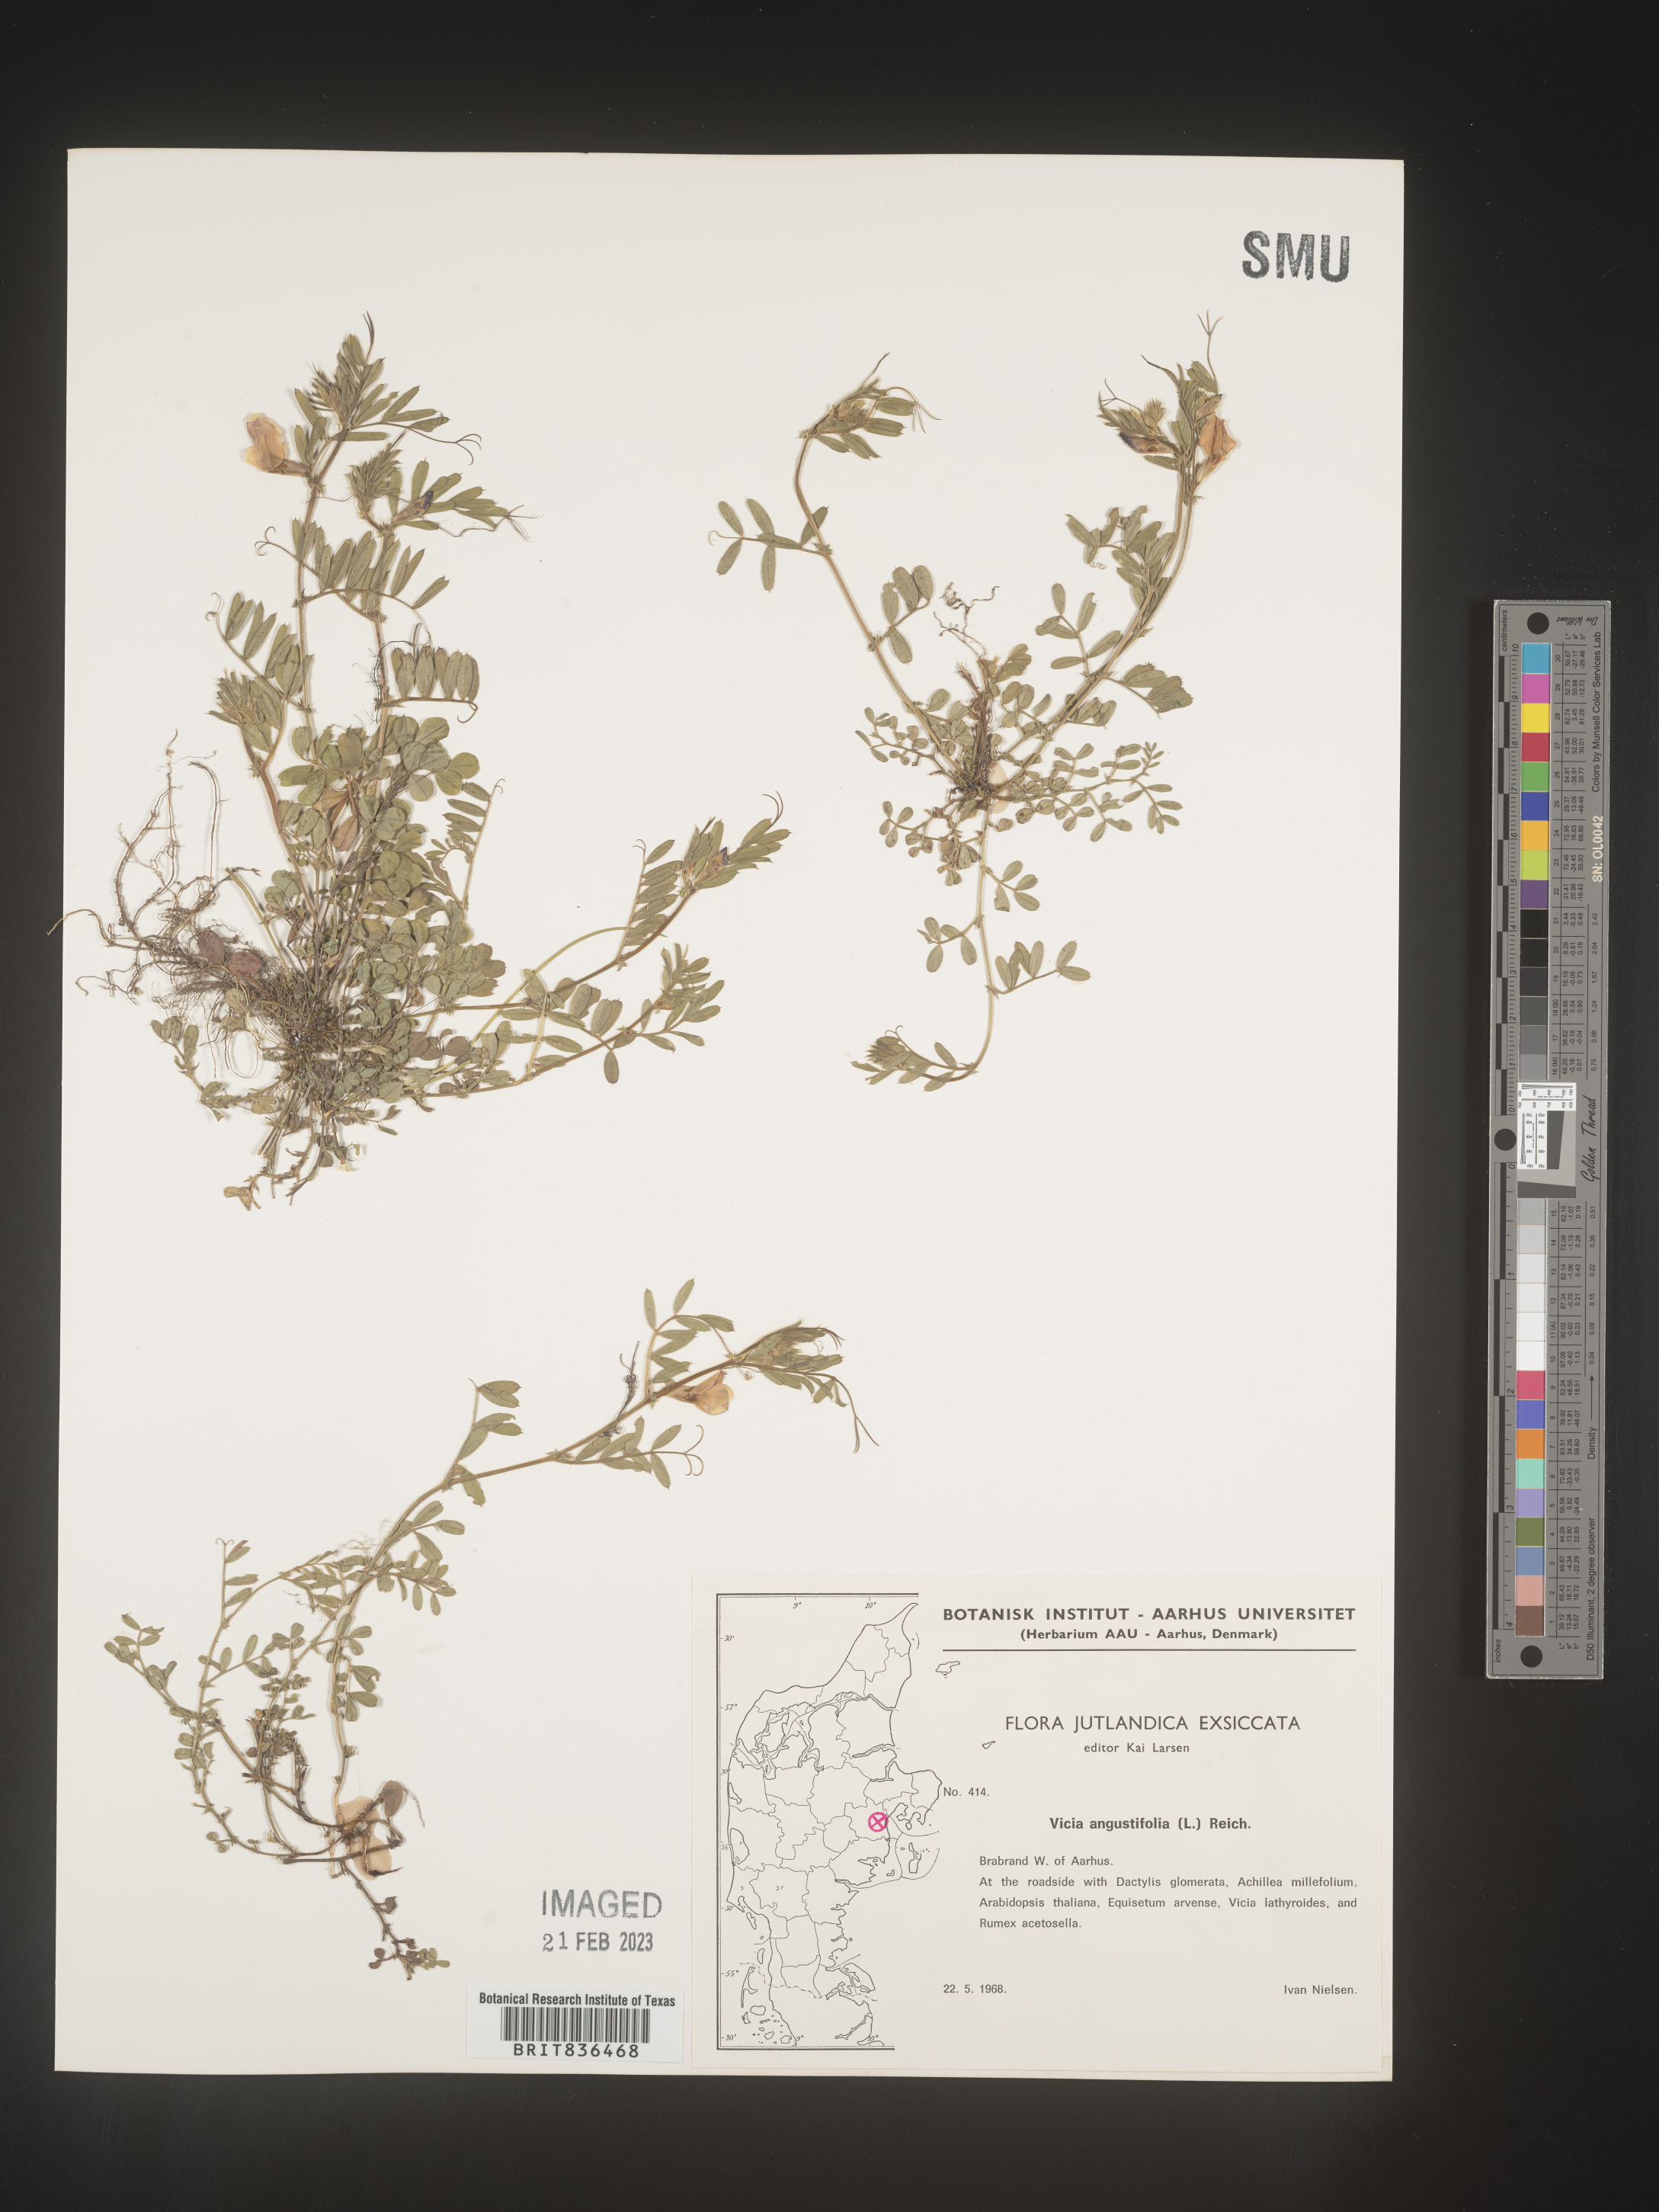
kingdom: Plantae
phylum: Tracheophyta
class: Magnoliopsida
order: Fabales
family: Fabaceae
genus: Vicia
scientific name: Vicia
